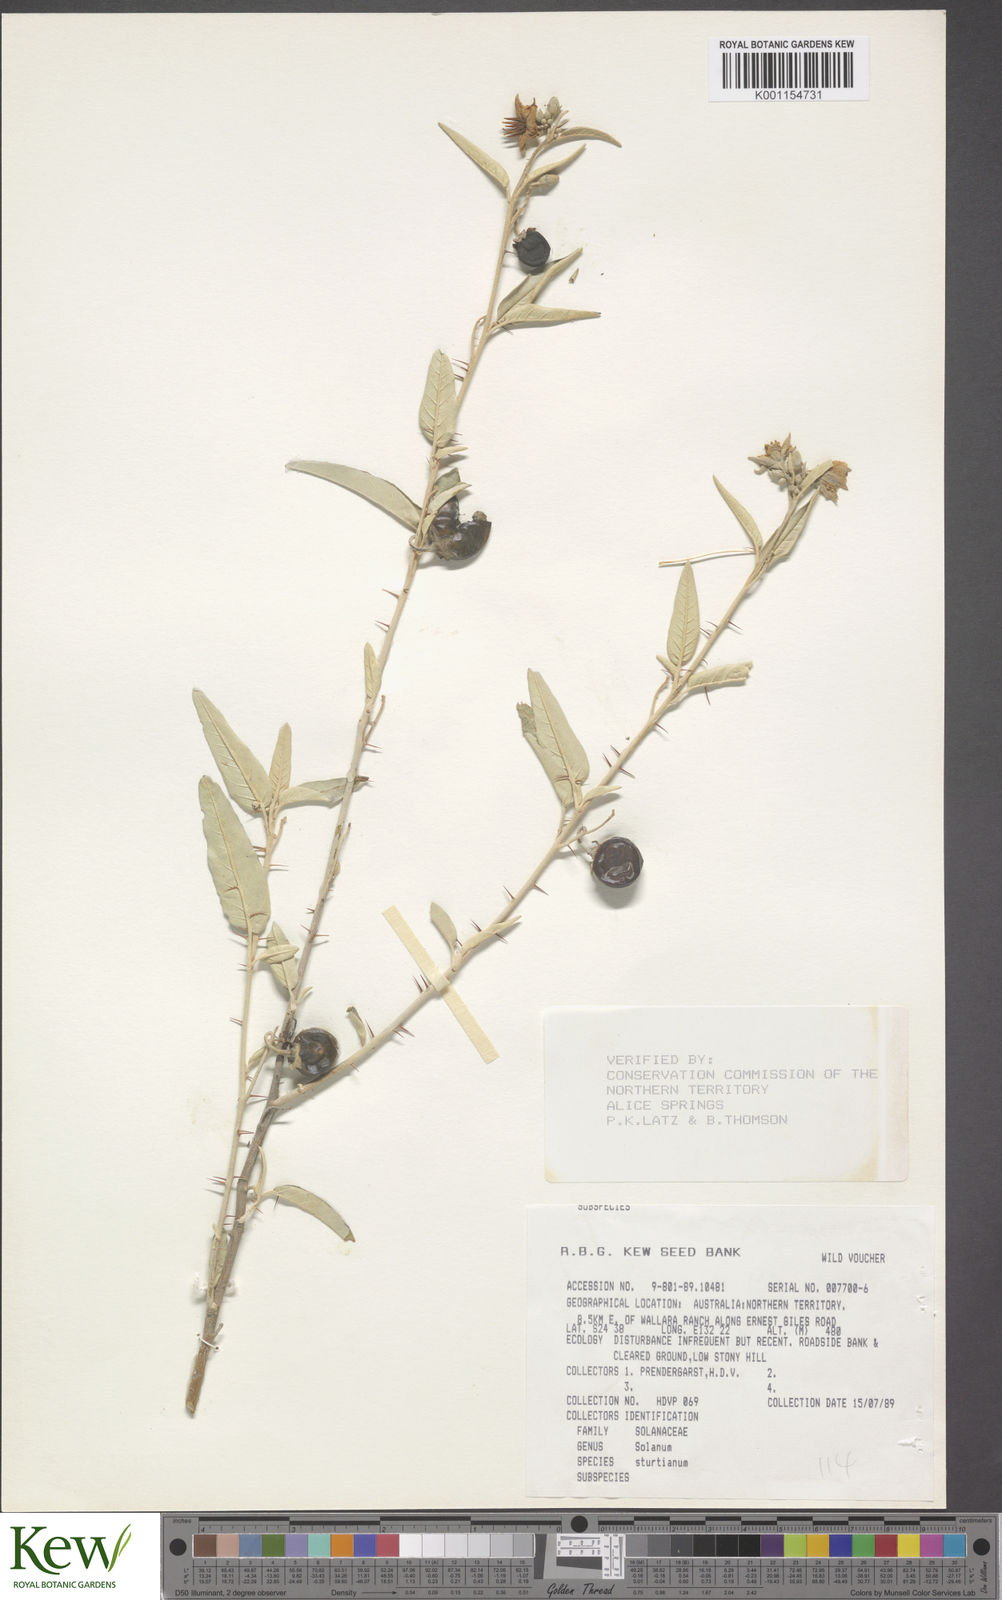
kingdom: Plantae
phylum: Tracheophyta
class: Magnoliopsida
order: Solanales
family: Solanaceae
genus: Solanum
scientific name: Solanum sturtianum
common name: Thargomindah nightshade
